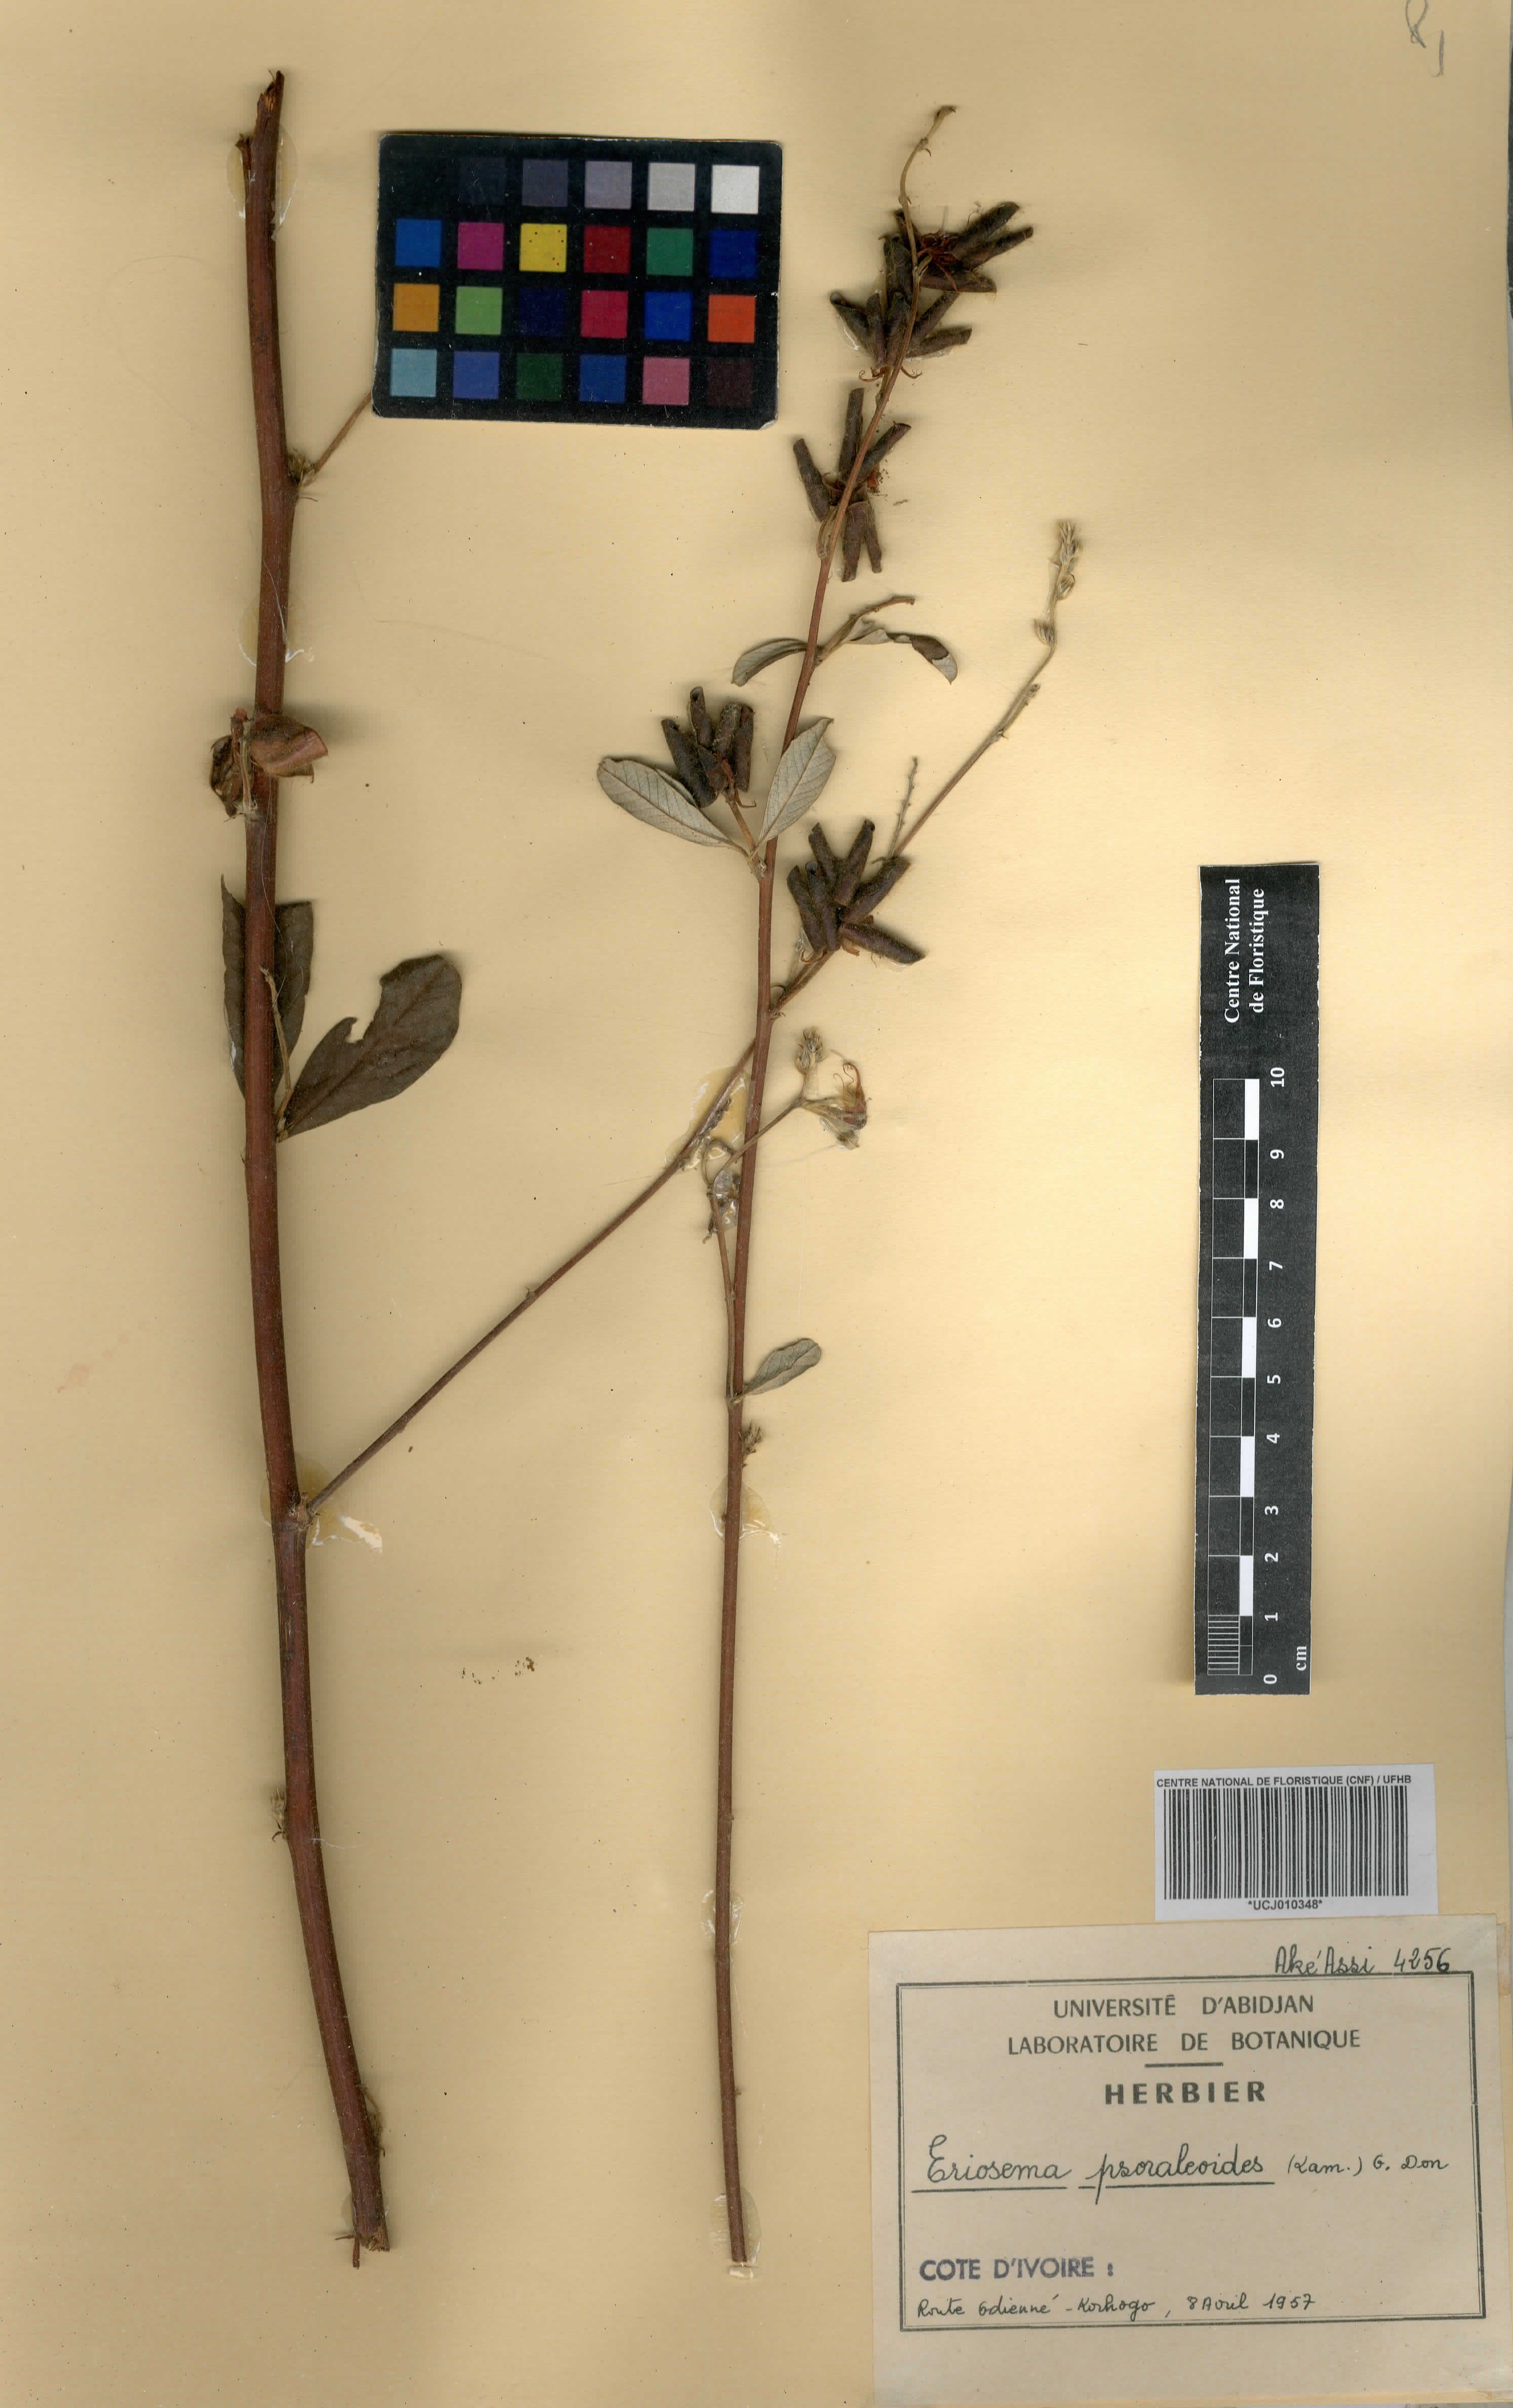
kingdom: Plantae
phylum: Tracheophyta
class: Magnoliopsida
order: Fabales
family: Fabaceae
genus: Eriosema
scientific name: Eriosema psoraleoides
